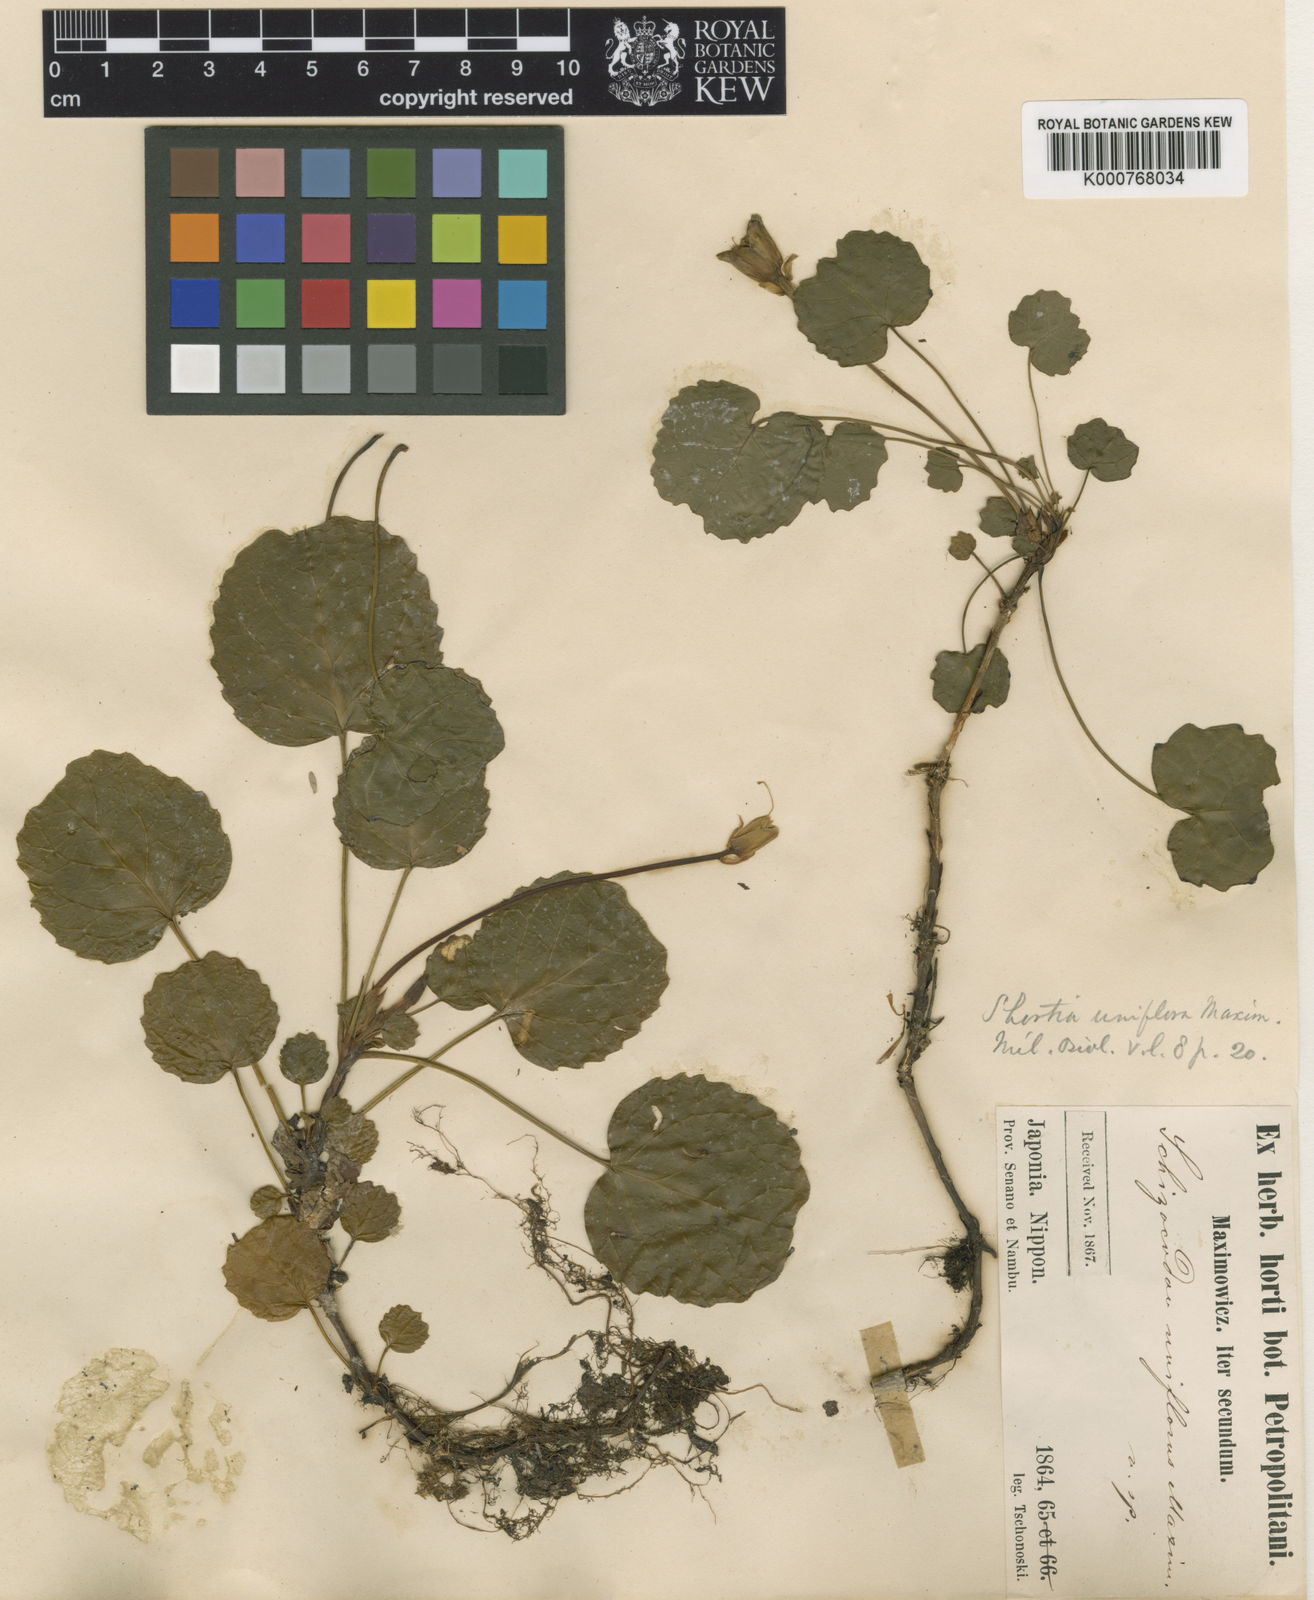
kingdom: Plantae
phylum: Tracheophyta
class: Magnoliopsida
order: Ericales
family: Diapensiaceae
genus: Shortia
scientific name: Shortia uniflora
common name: Nippon bells
